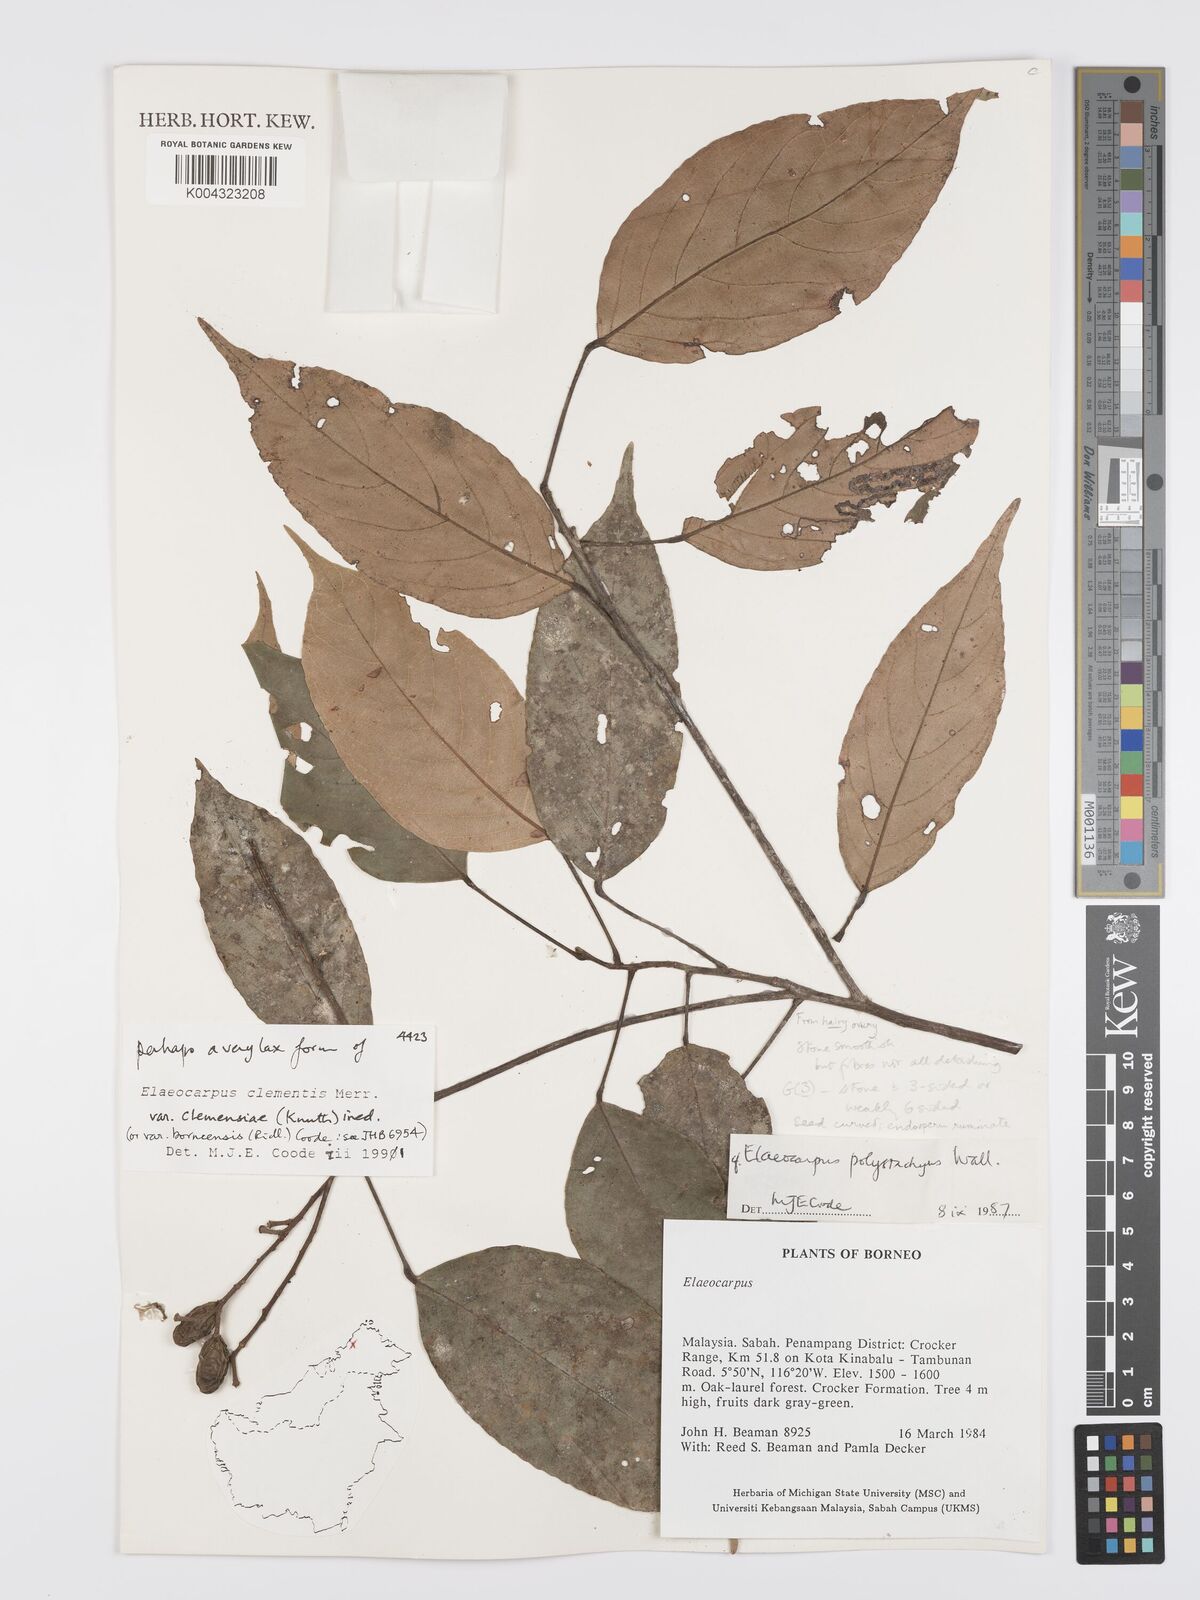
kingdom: Plantae
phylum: Tracheophyta
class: Magnoliopsida
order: Oxalidales
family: Elaeocarpaceae
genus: Elaeocarpus
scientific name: Elaeocarpus clementis
